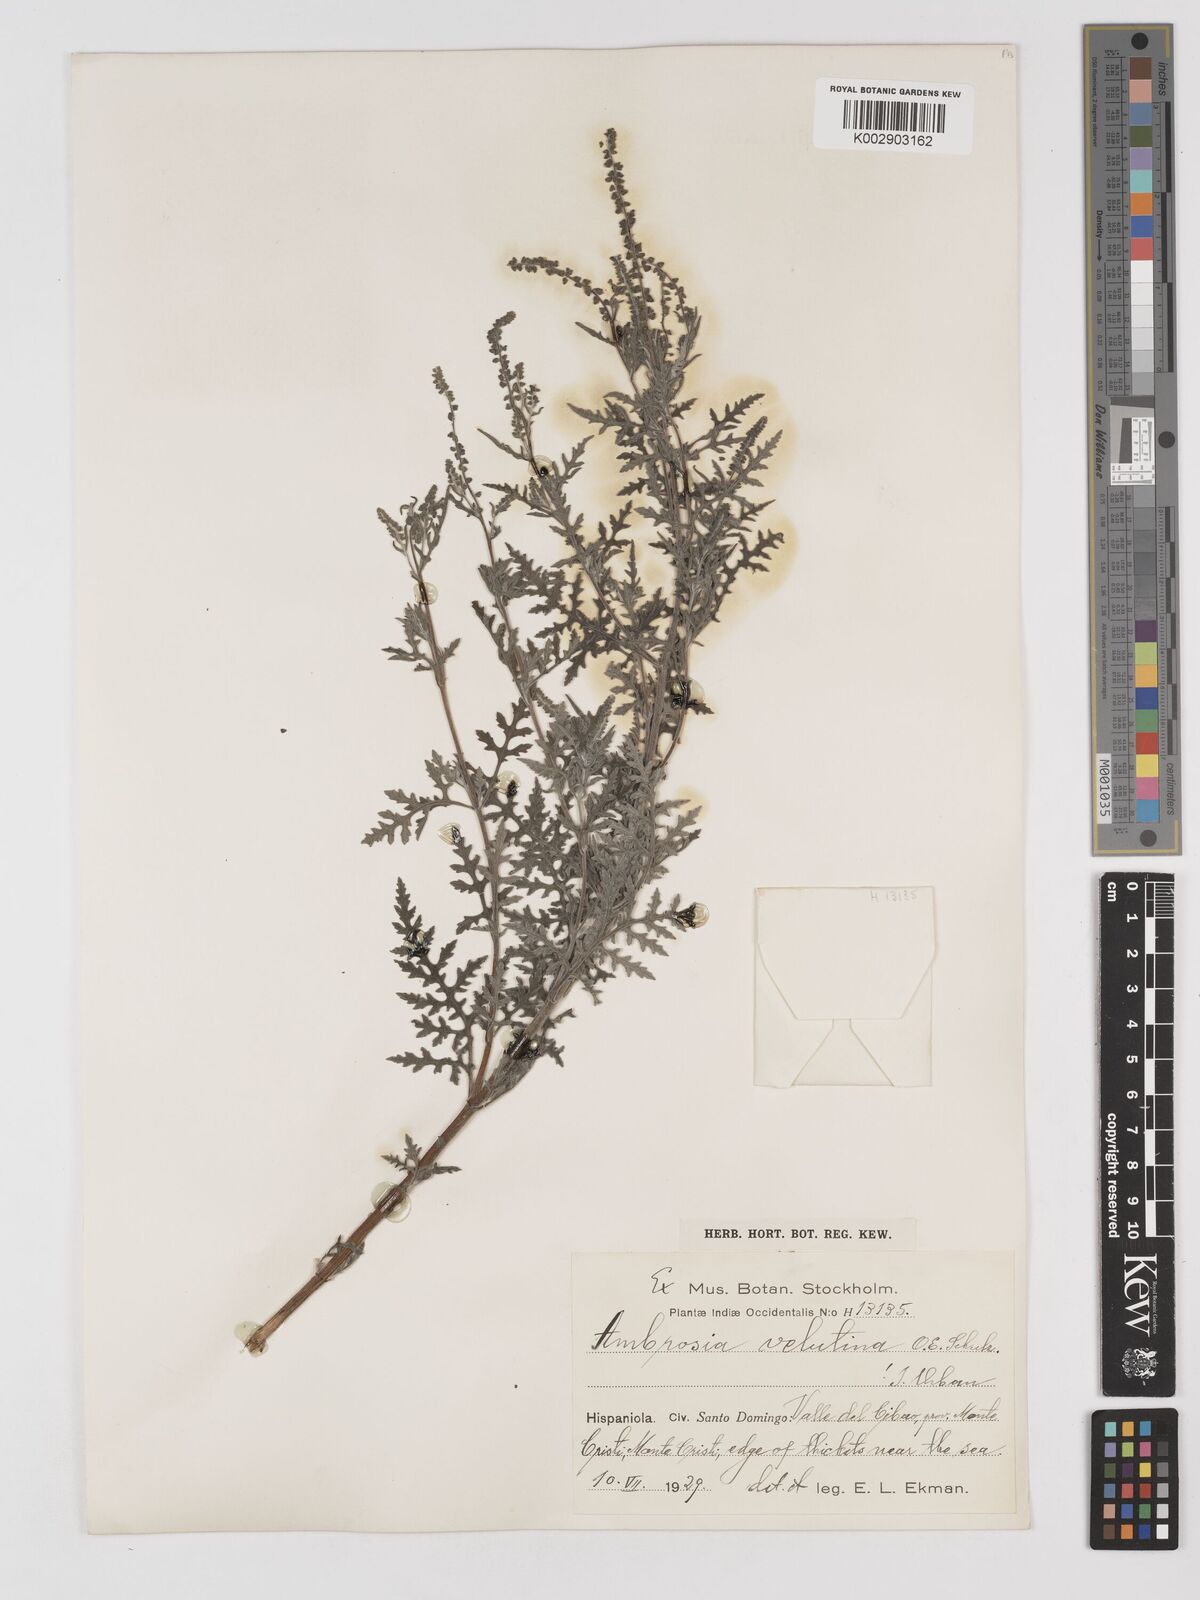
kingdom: Plantae
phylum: Tracheophyta
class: Magnoliopsida
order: Asterales
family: Asteraceae
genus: Ambrosia
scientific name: Ambrosia velutina
